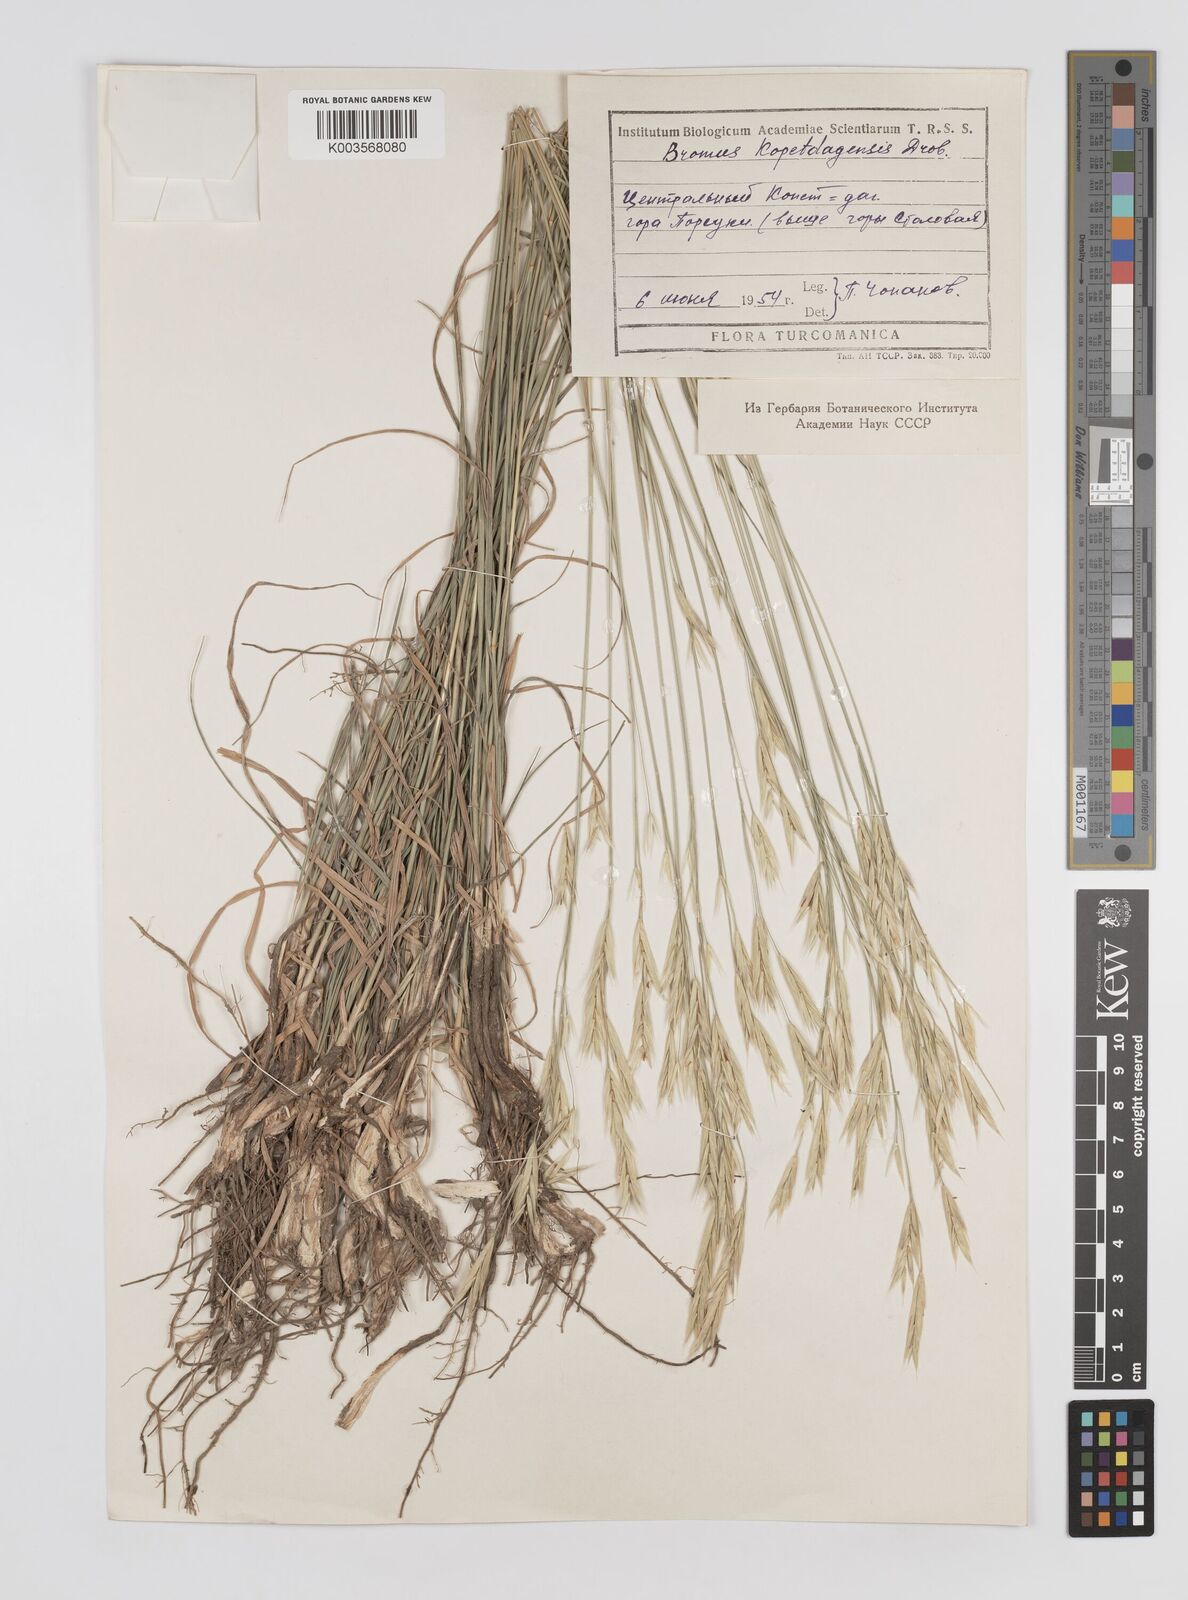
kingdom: Plantae
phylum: Tracheophyta
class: Liliopsida
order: Poales
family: Poaceae
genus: Bromus
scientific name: Bromus kopetdagensis
